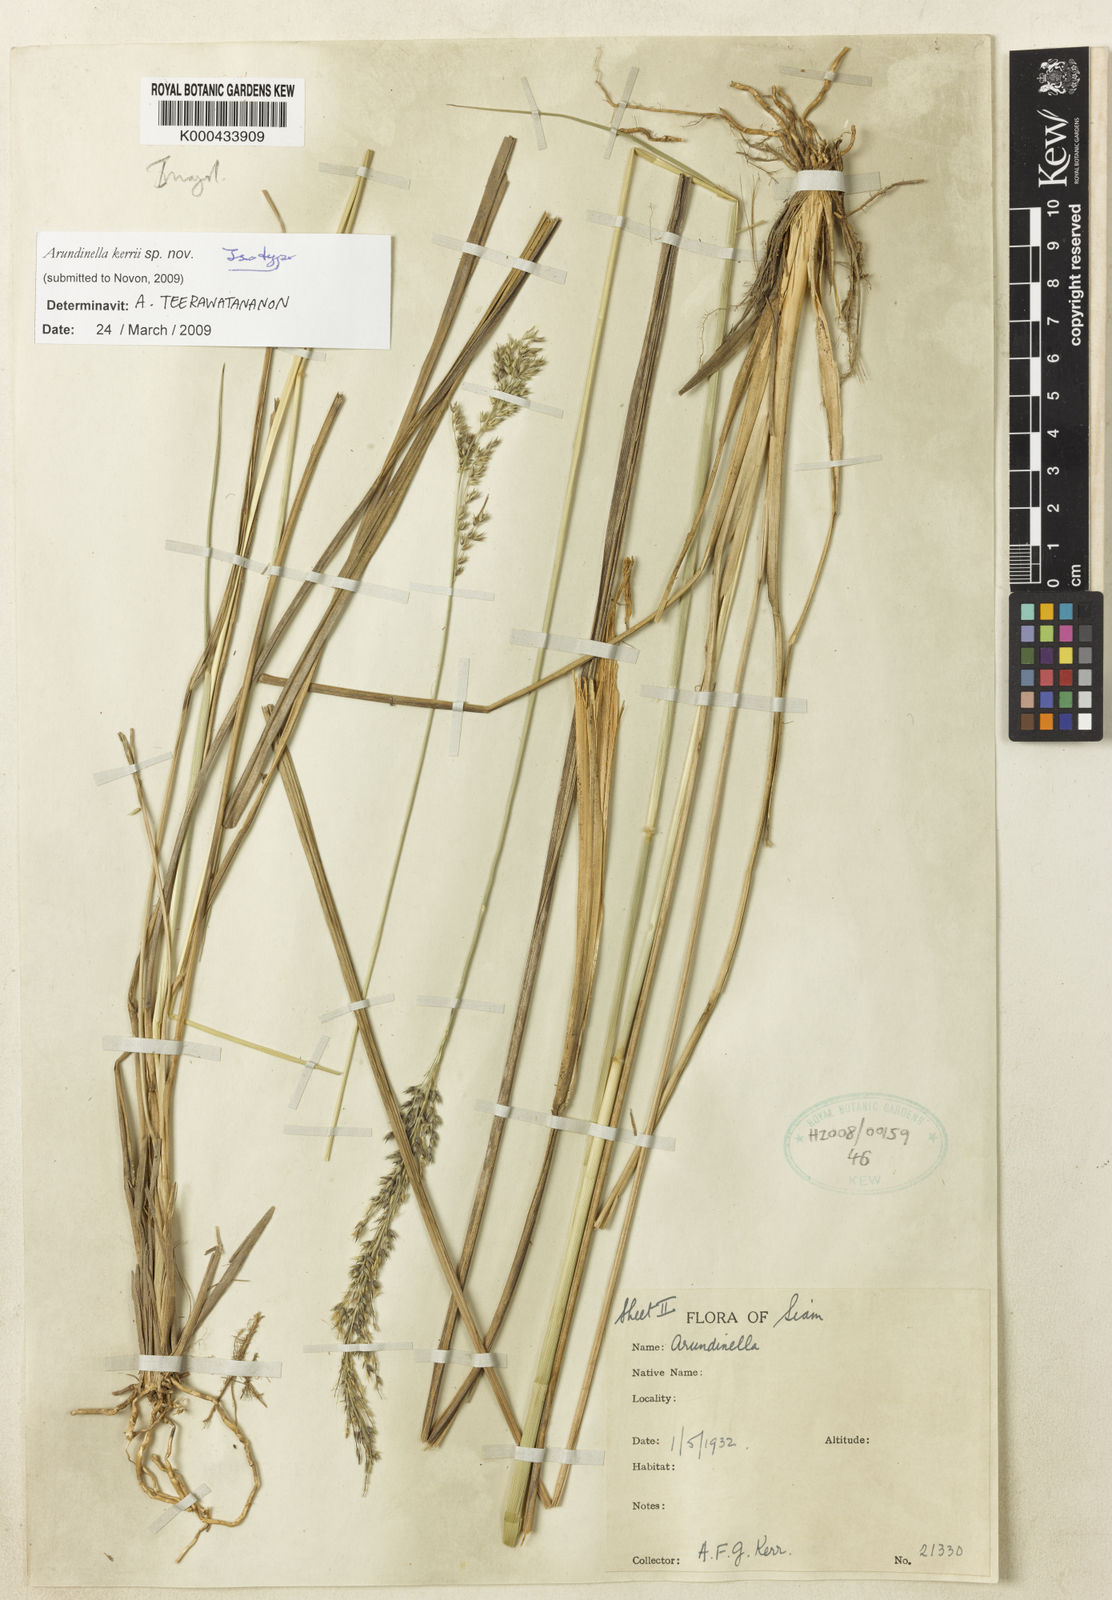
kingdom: Plantae
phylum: Tracheophyta
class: Liliopsida
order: Poales
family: Poaceae
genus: Arundinella
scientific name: Arundinella kerrii
